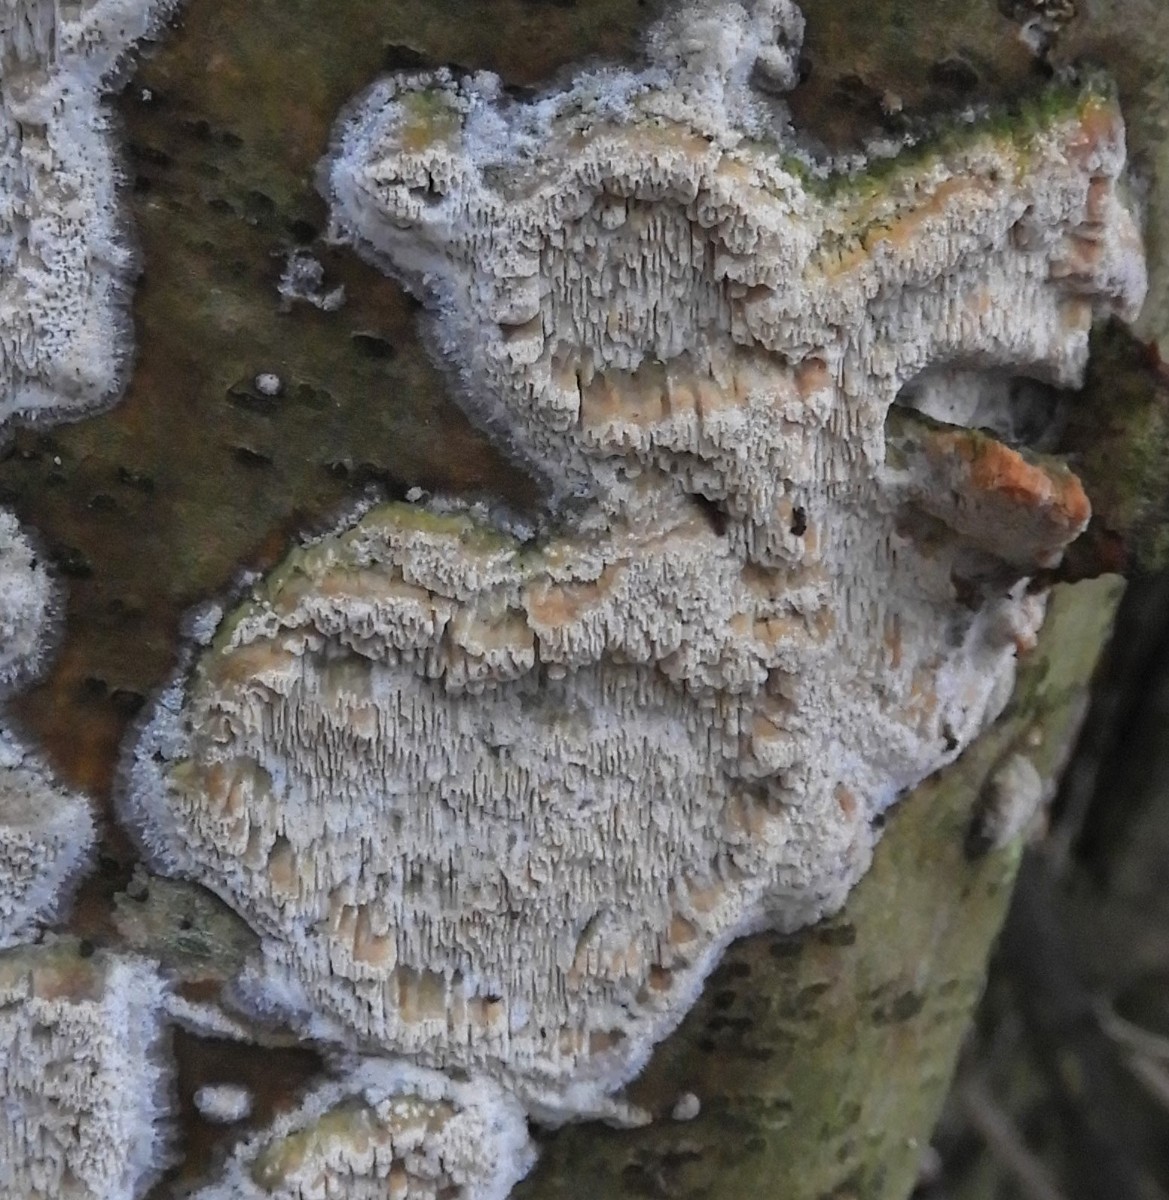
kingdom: Fungi
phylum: Basidiomycota
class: Agaricomycetes
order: Corticiales
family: Corticiaceae
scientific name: Corticiaceae
